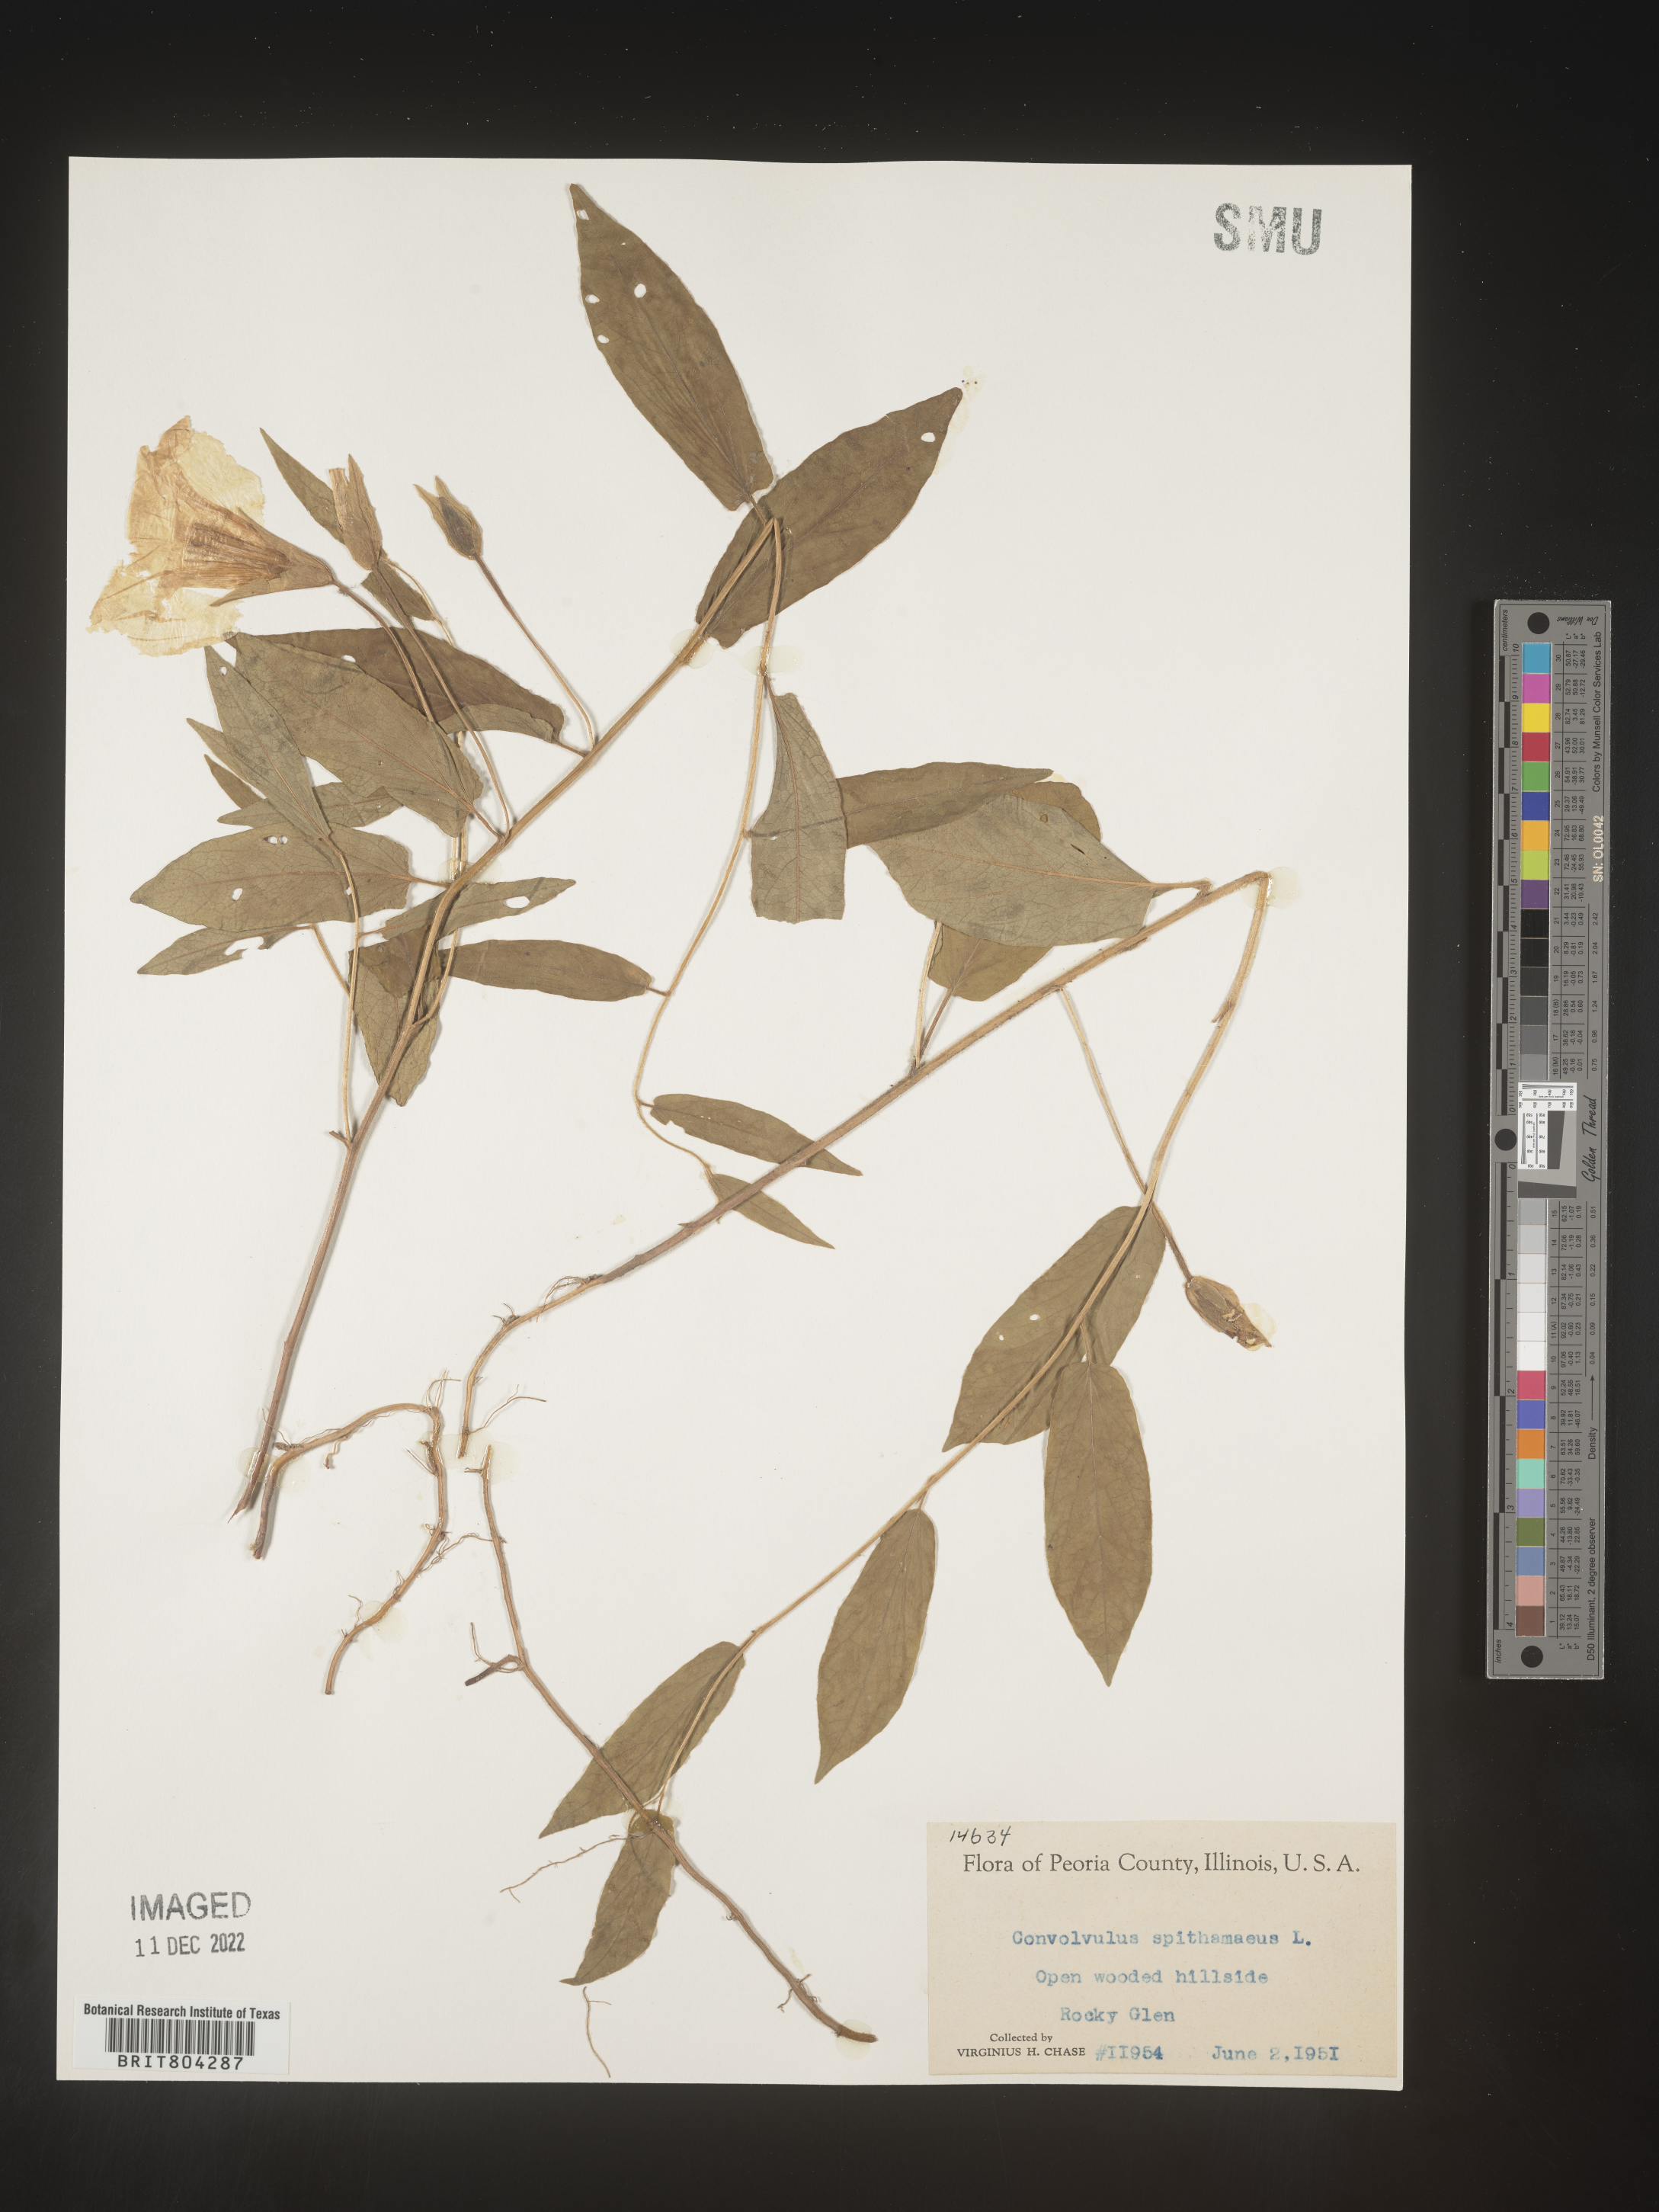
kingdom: Plantae
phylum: Tracheophyta
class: Magnoliopsida
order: Solanales
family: Convolvulaceae
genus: Calystegia
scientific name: Calystegia
